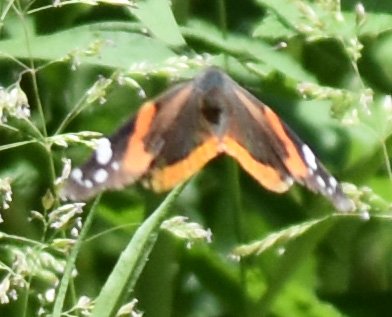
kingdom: Animalia
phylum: Arthropoda
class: Insecta
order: Lepidoptera
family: Nymphalidae
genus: Vanessa
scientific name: Vanessa atalanta
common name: Red Admiral
